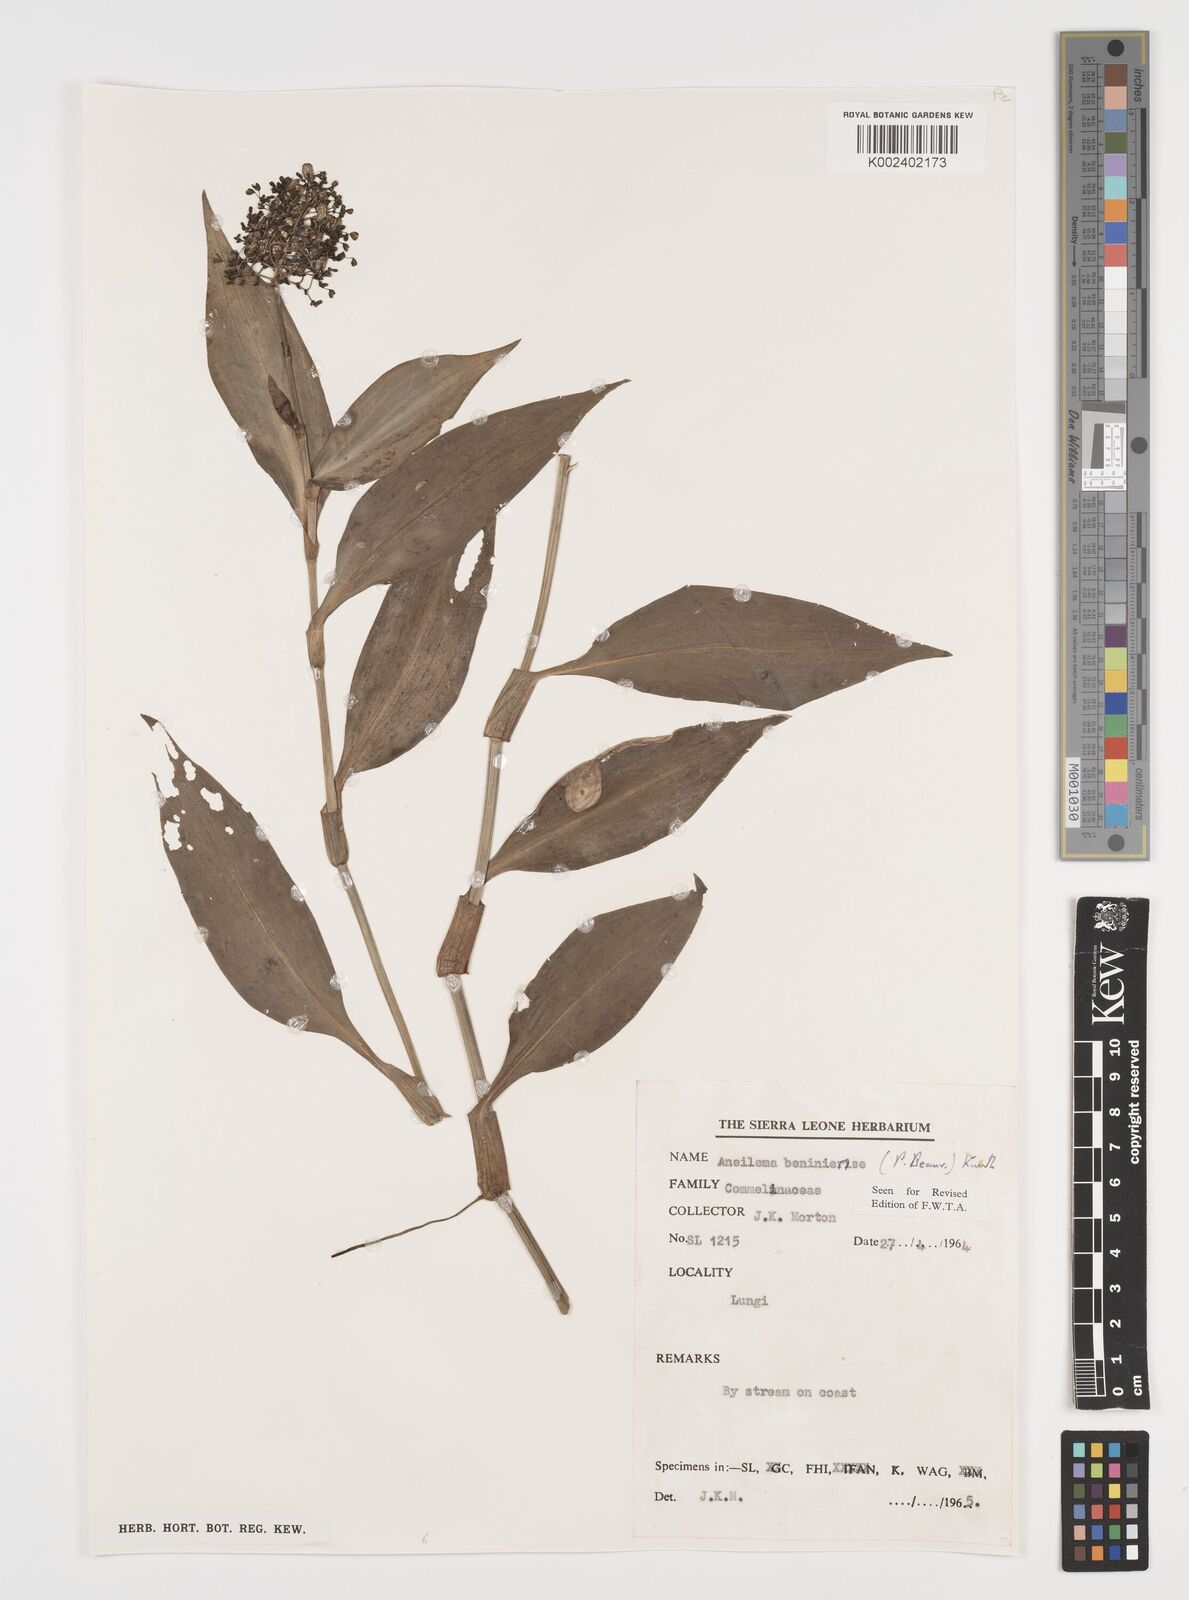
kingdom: Plantae
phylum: Tracheophyta
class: Liliopsida
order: Commelinales
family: Commelinaceae
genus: Aneilema
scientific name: Aneilema beniniense
